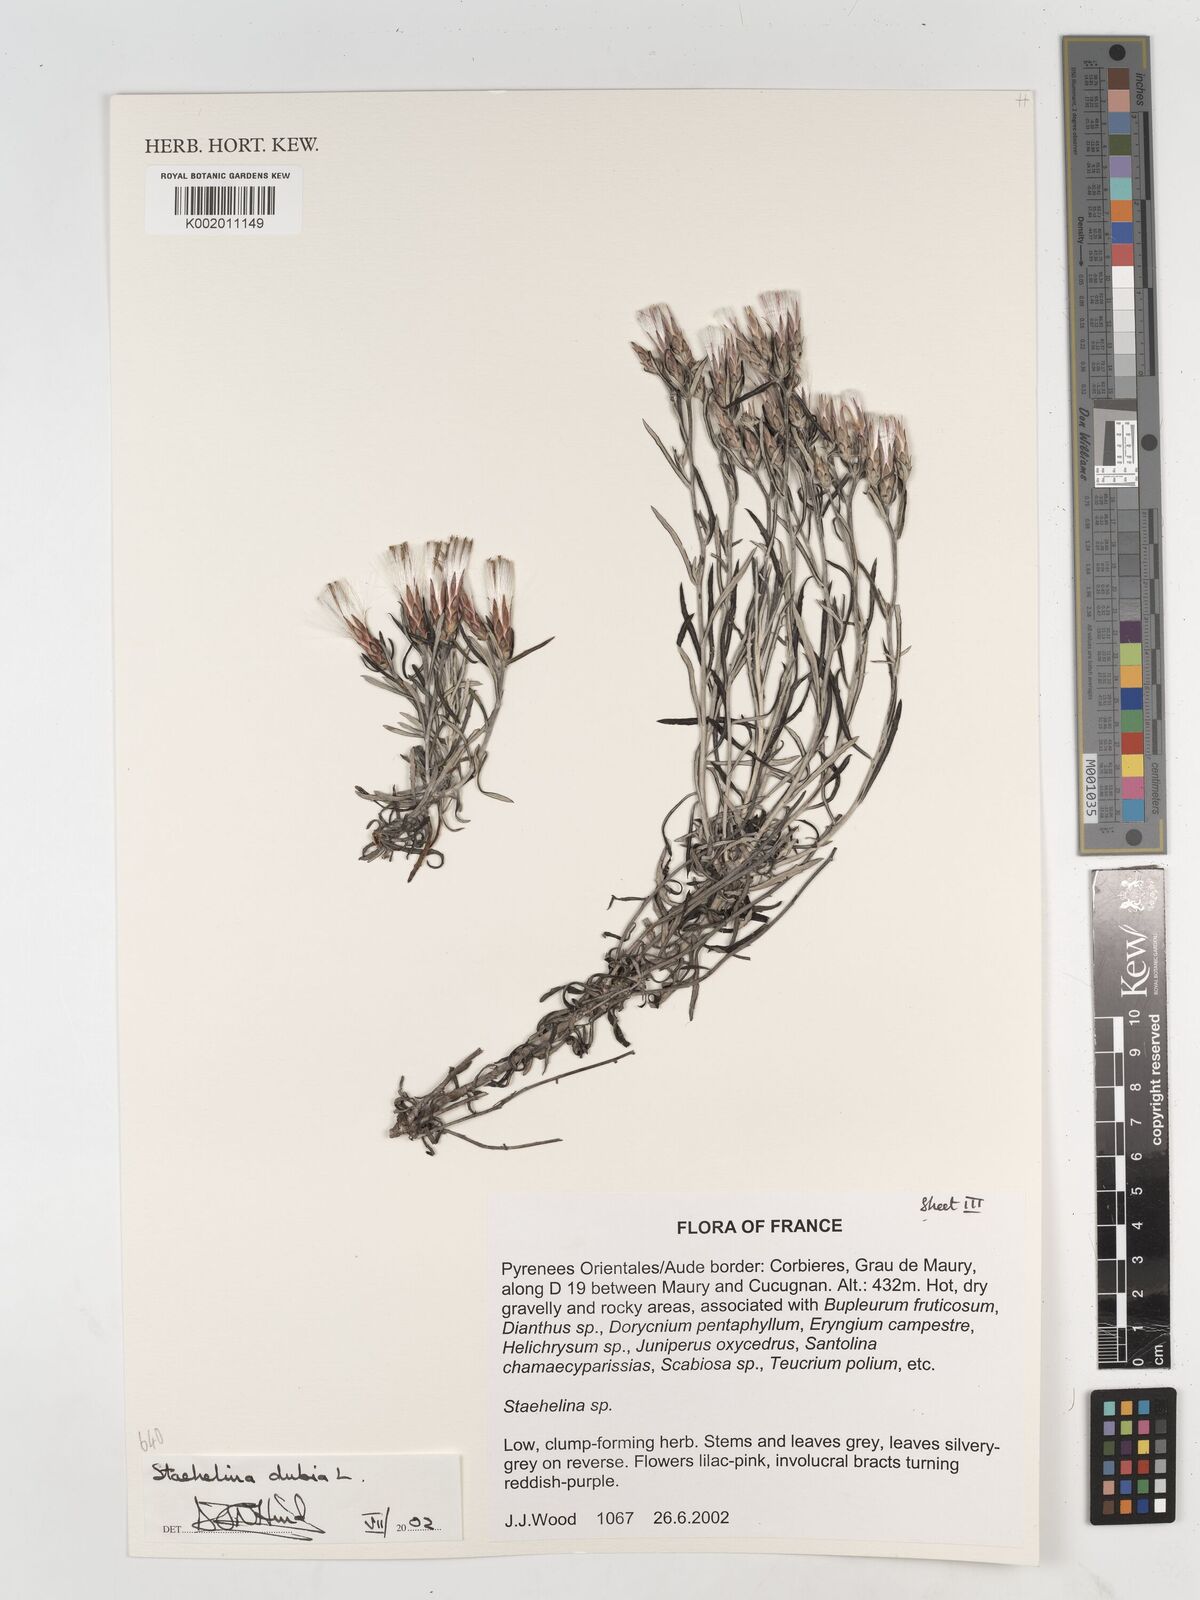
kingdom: Plantae
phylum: Tracheophyta
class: Magnoliopsida
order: Asterales
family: Asteraceae
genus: Staehelina
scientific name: Staehelina dubia
